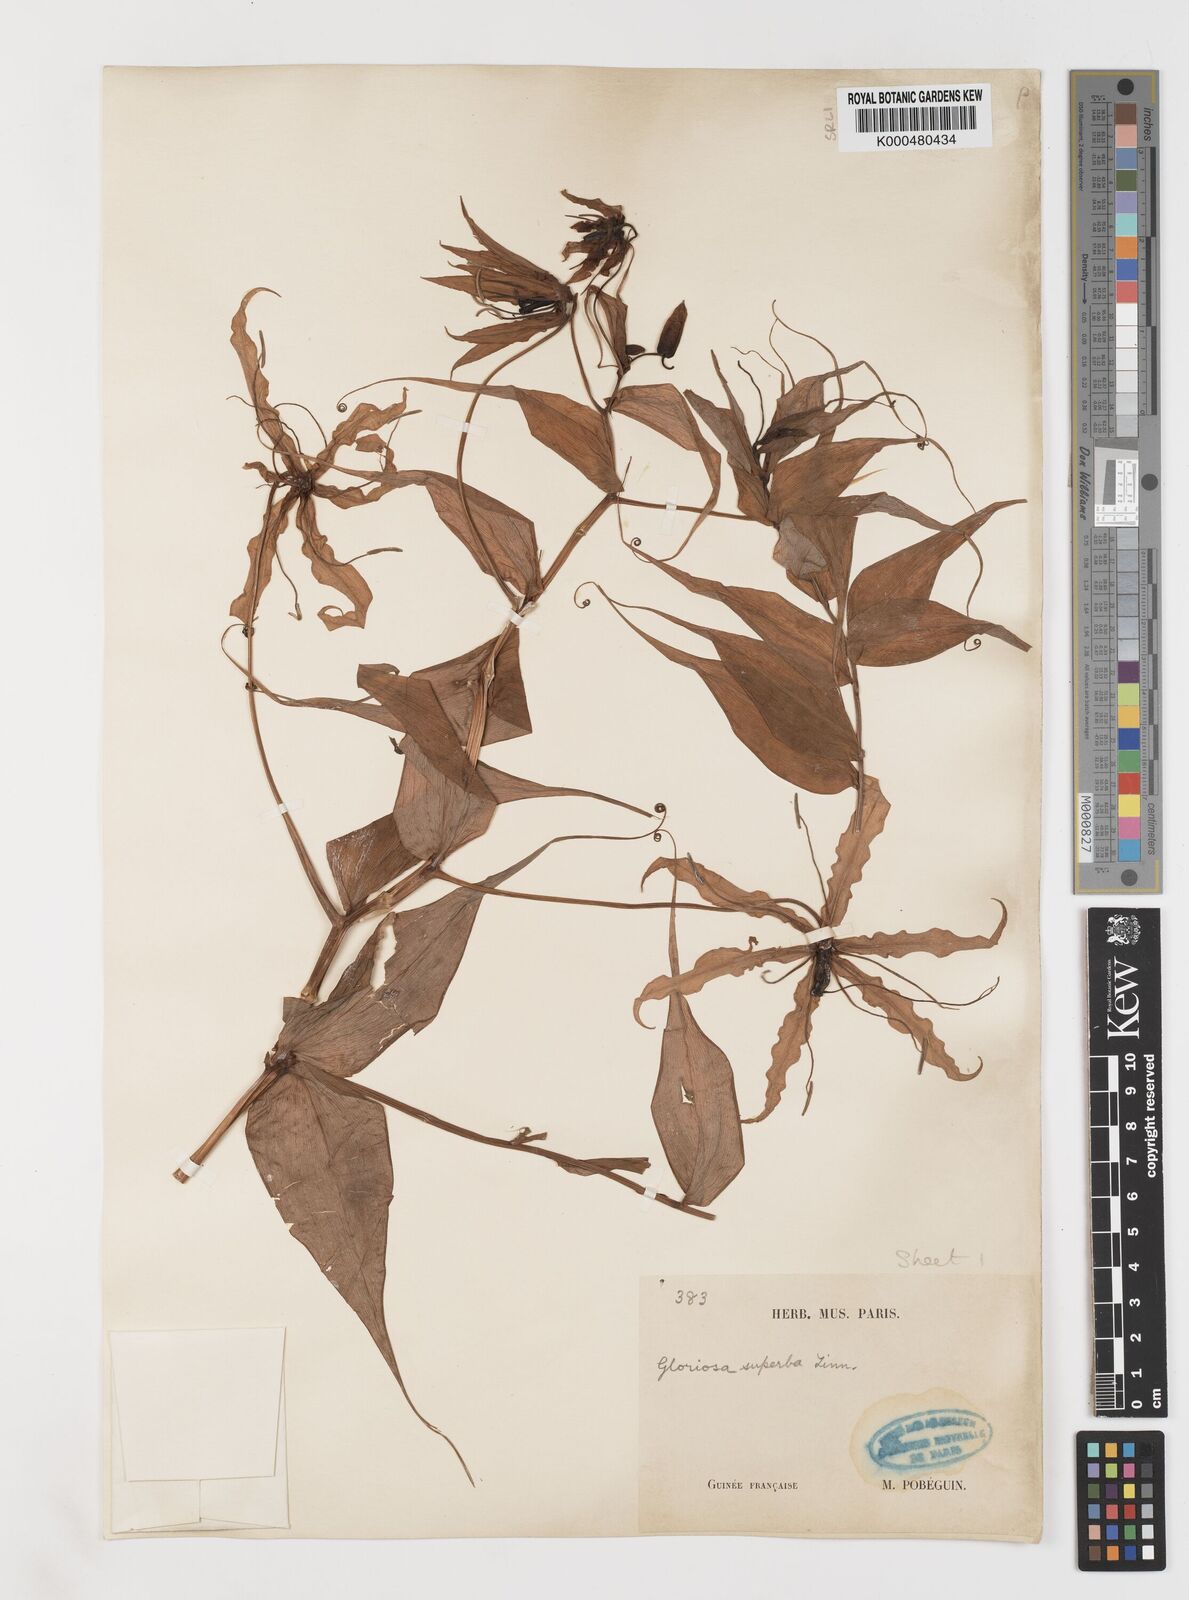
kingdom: Plantae
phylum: Tracheophyta
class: Liliopsida
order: Liliales
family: Colchicaceae
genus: Gloriosa
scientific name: Gloriosa superba
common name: Flame lily
